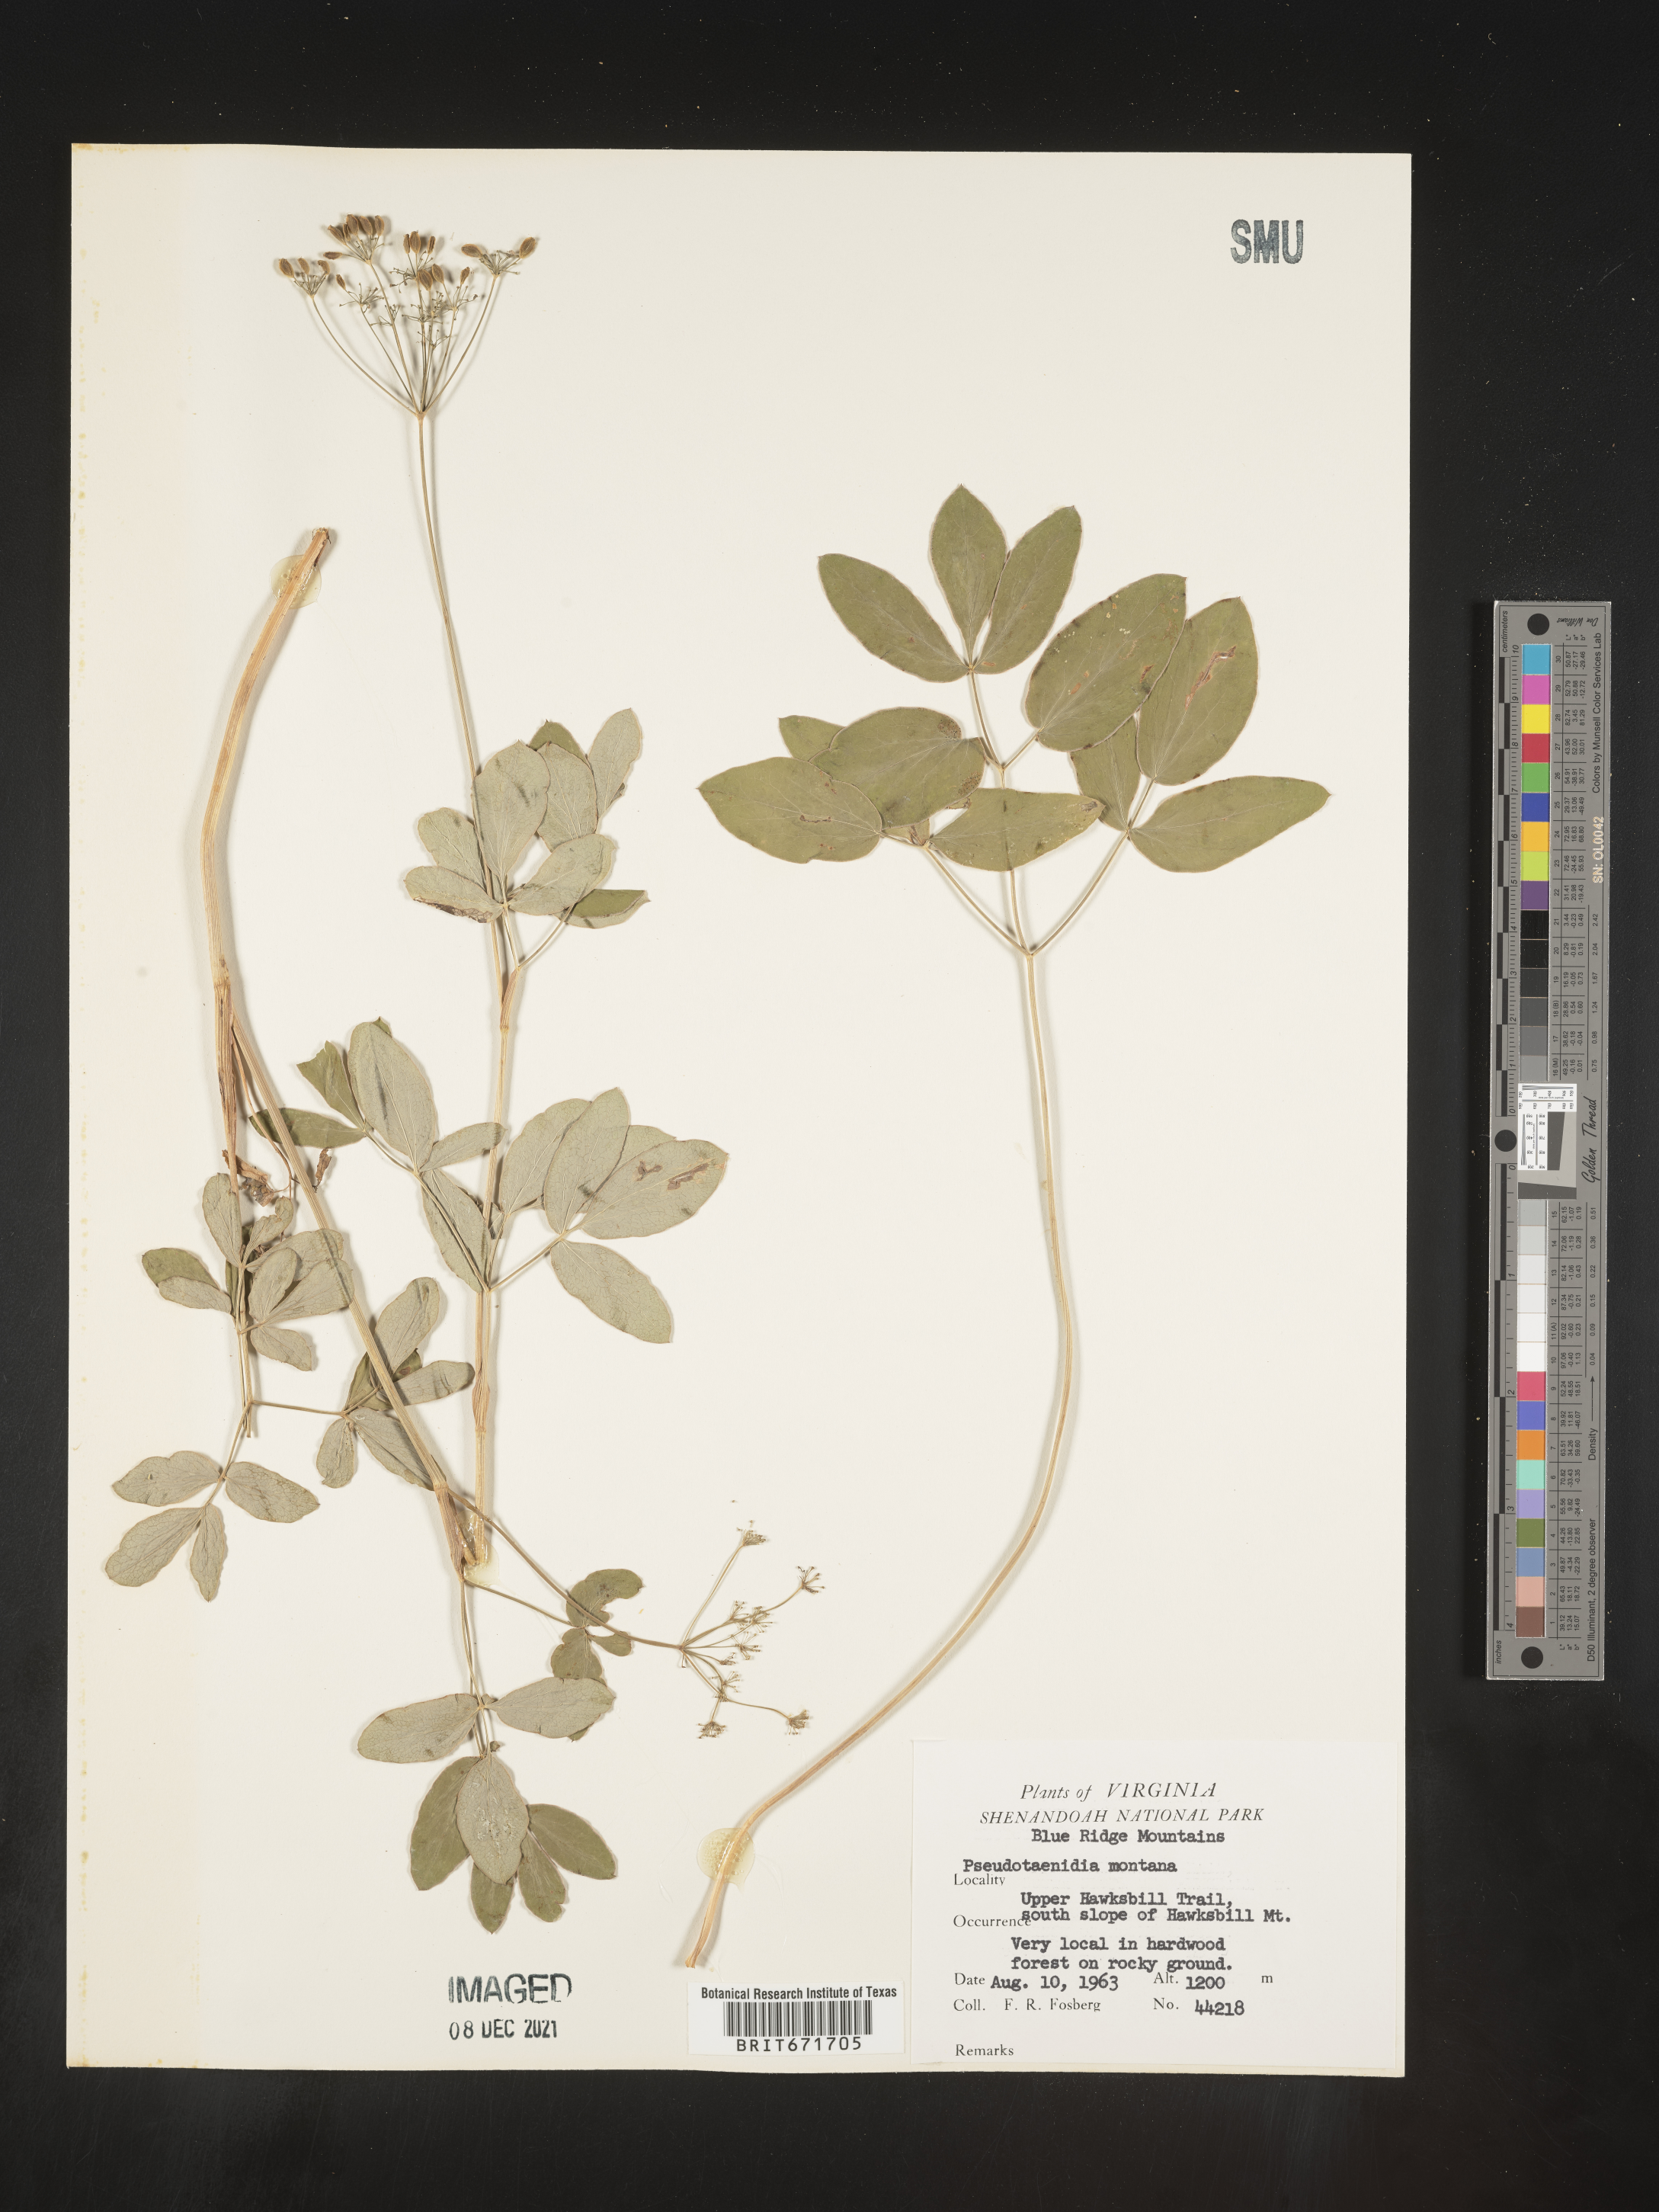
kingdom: Plantae
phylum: Tracheophyta
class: Magnoliopsida
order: Apiales
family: Apiaceae
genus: Taenidia
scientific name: Taenidia
